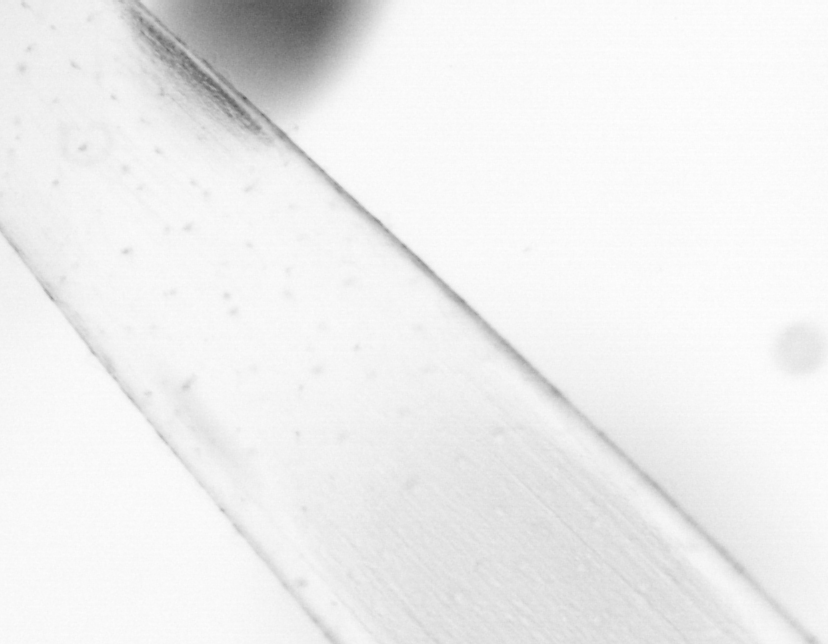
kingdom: Animalia
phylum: Chaetognatha
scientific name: Chaetognatha
